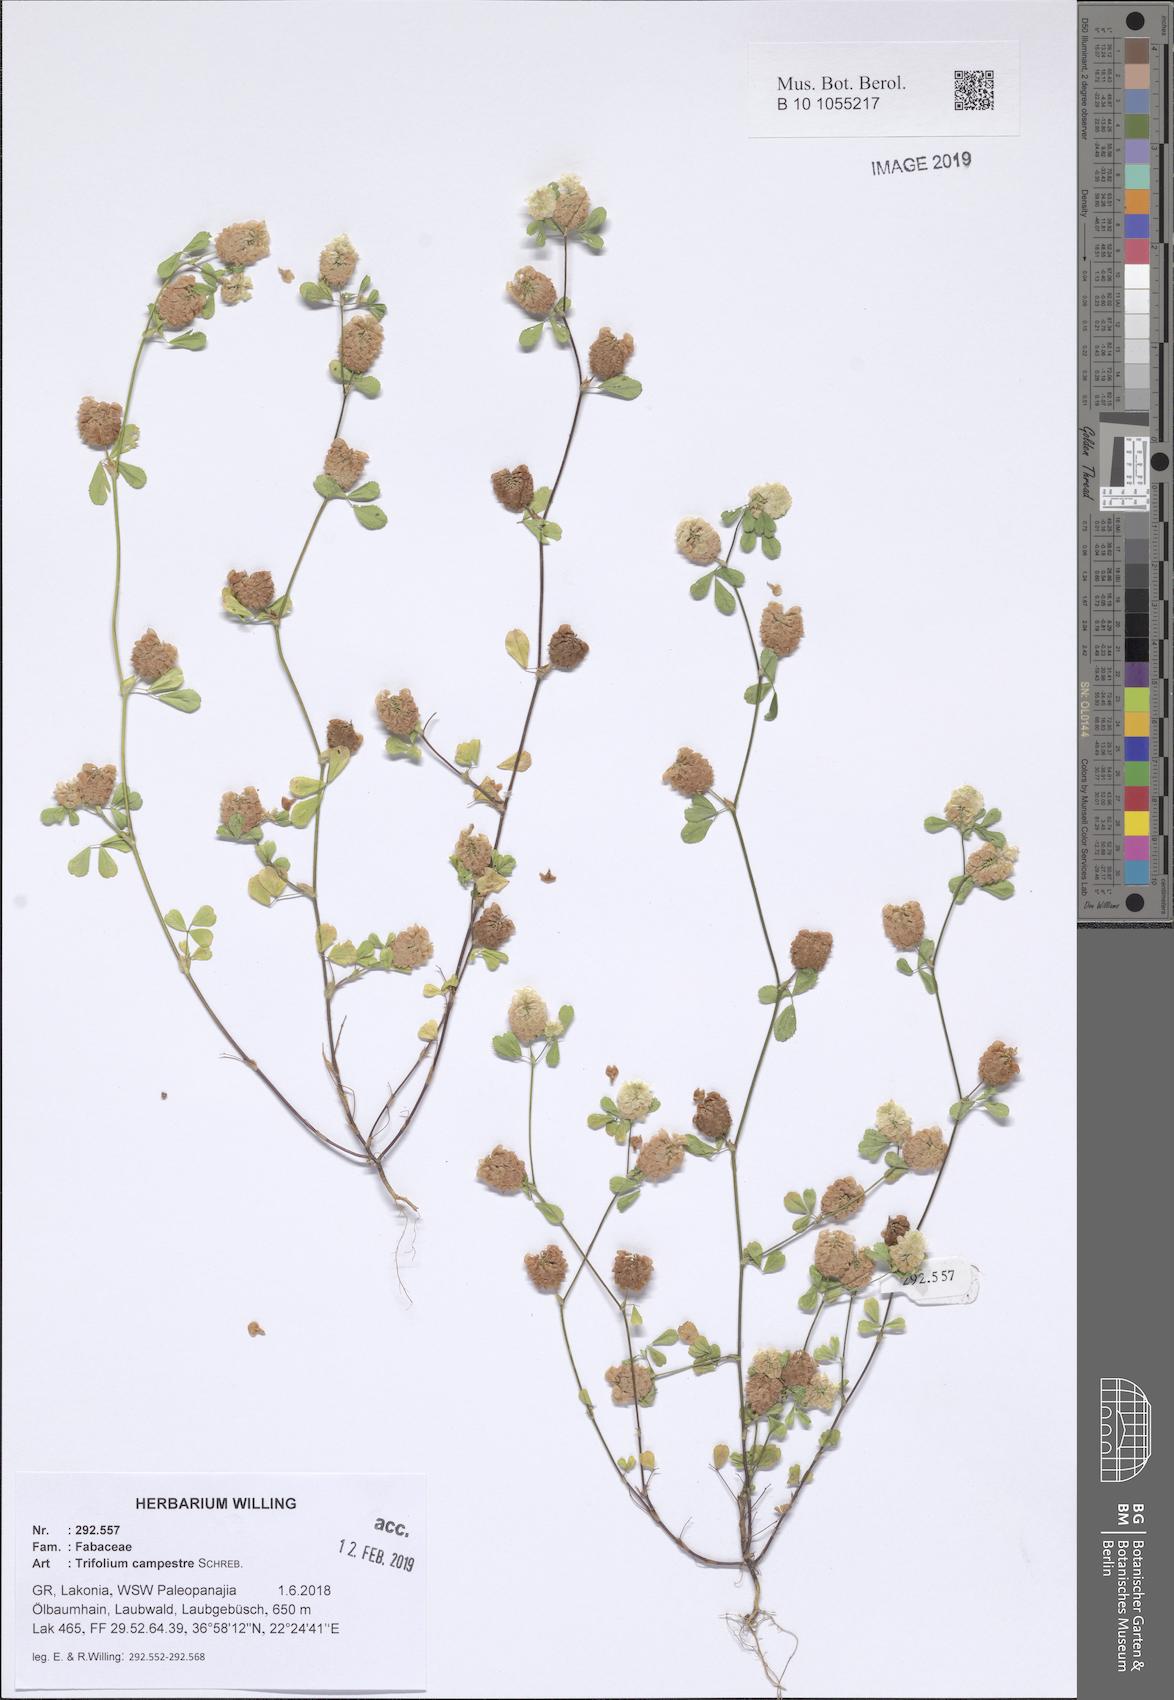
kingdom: Plantae
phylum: Tracheophyta
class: Magnoliopsida
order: Fabales
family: Fabaceae
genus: Trifolium
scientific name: Trifolium campestre
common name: Field clover
